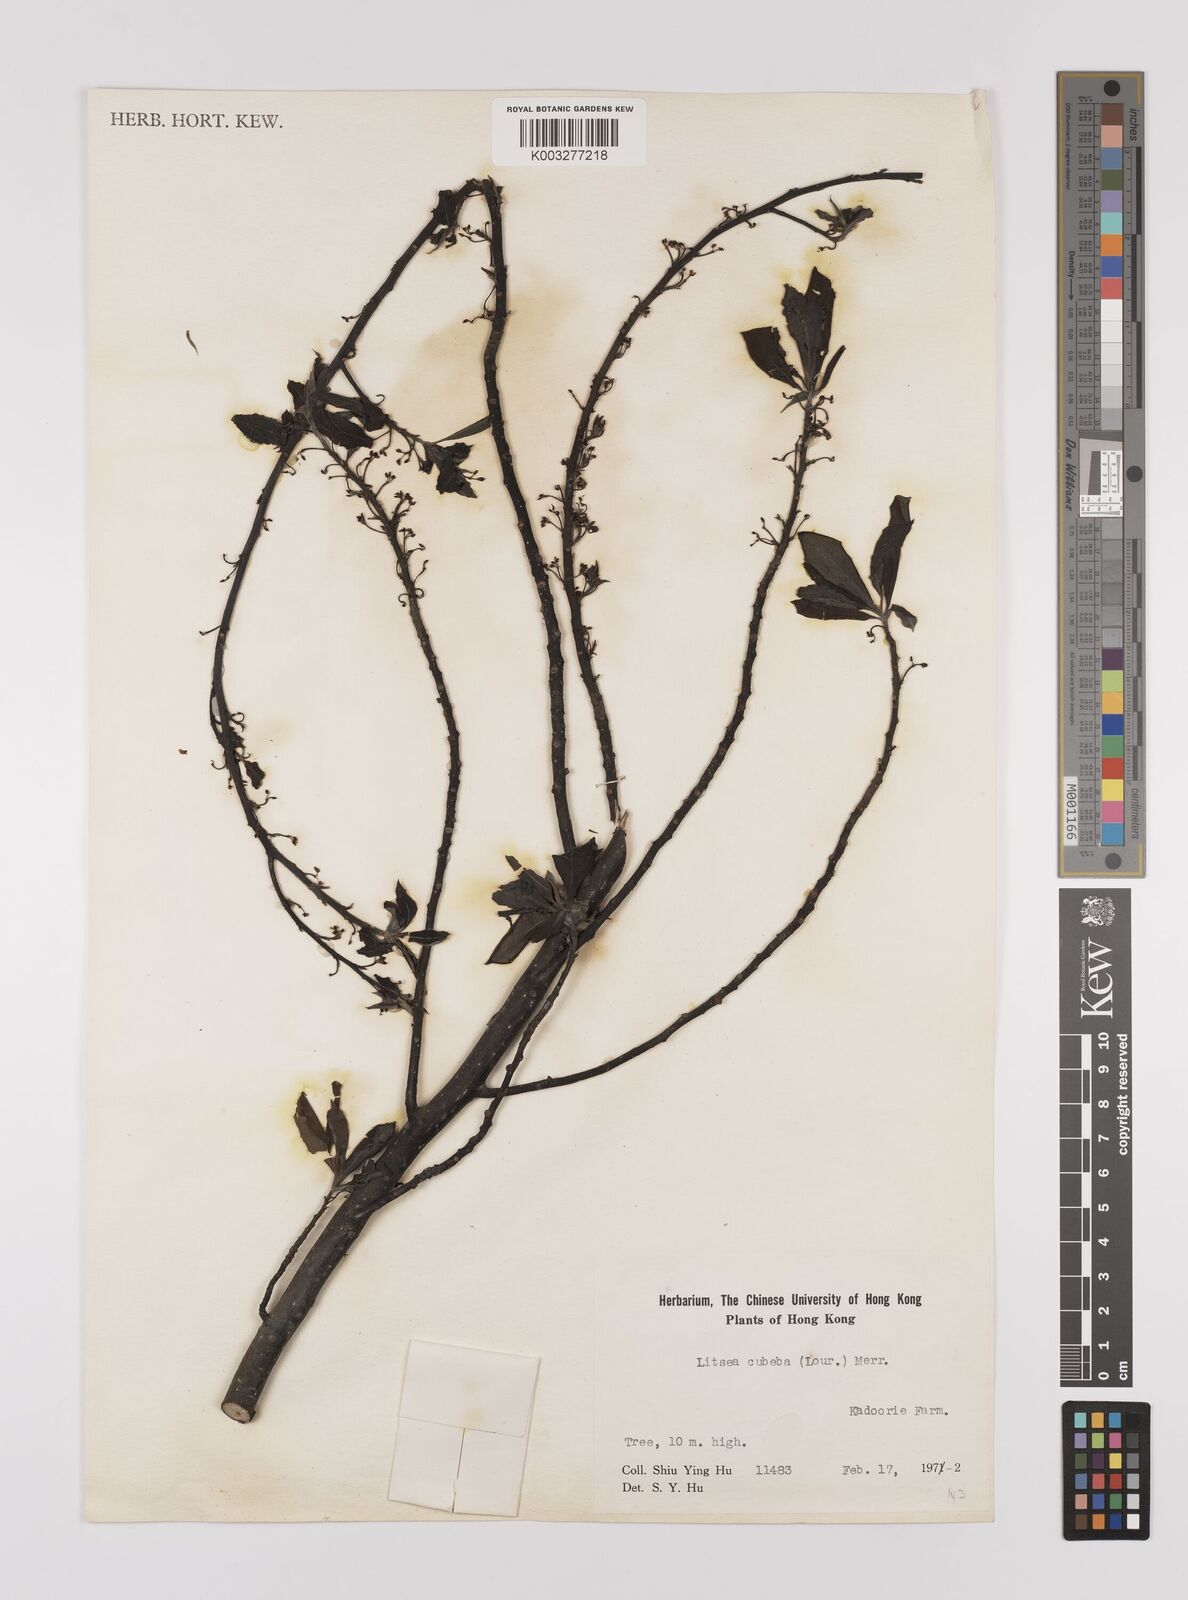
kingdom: Plantae
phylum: Tracheophyta
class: Magnoliopsida
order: Laurales
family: Lauraceae
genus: Litsea
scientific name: Litsea cubeba
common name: Mountain-pepper
